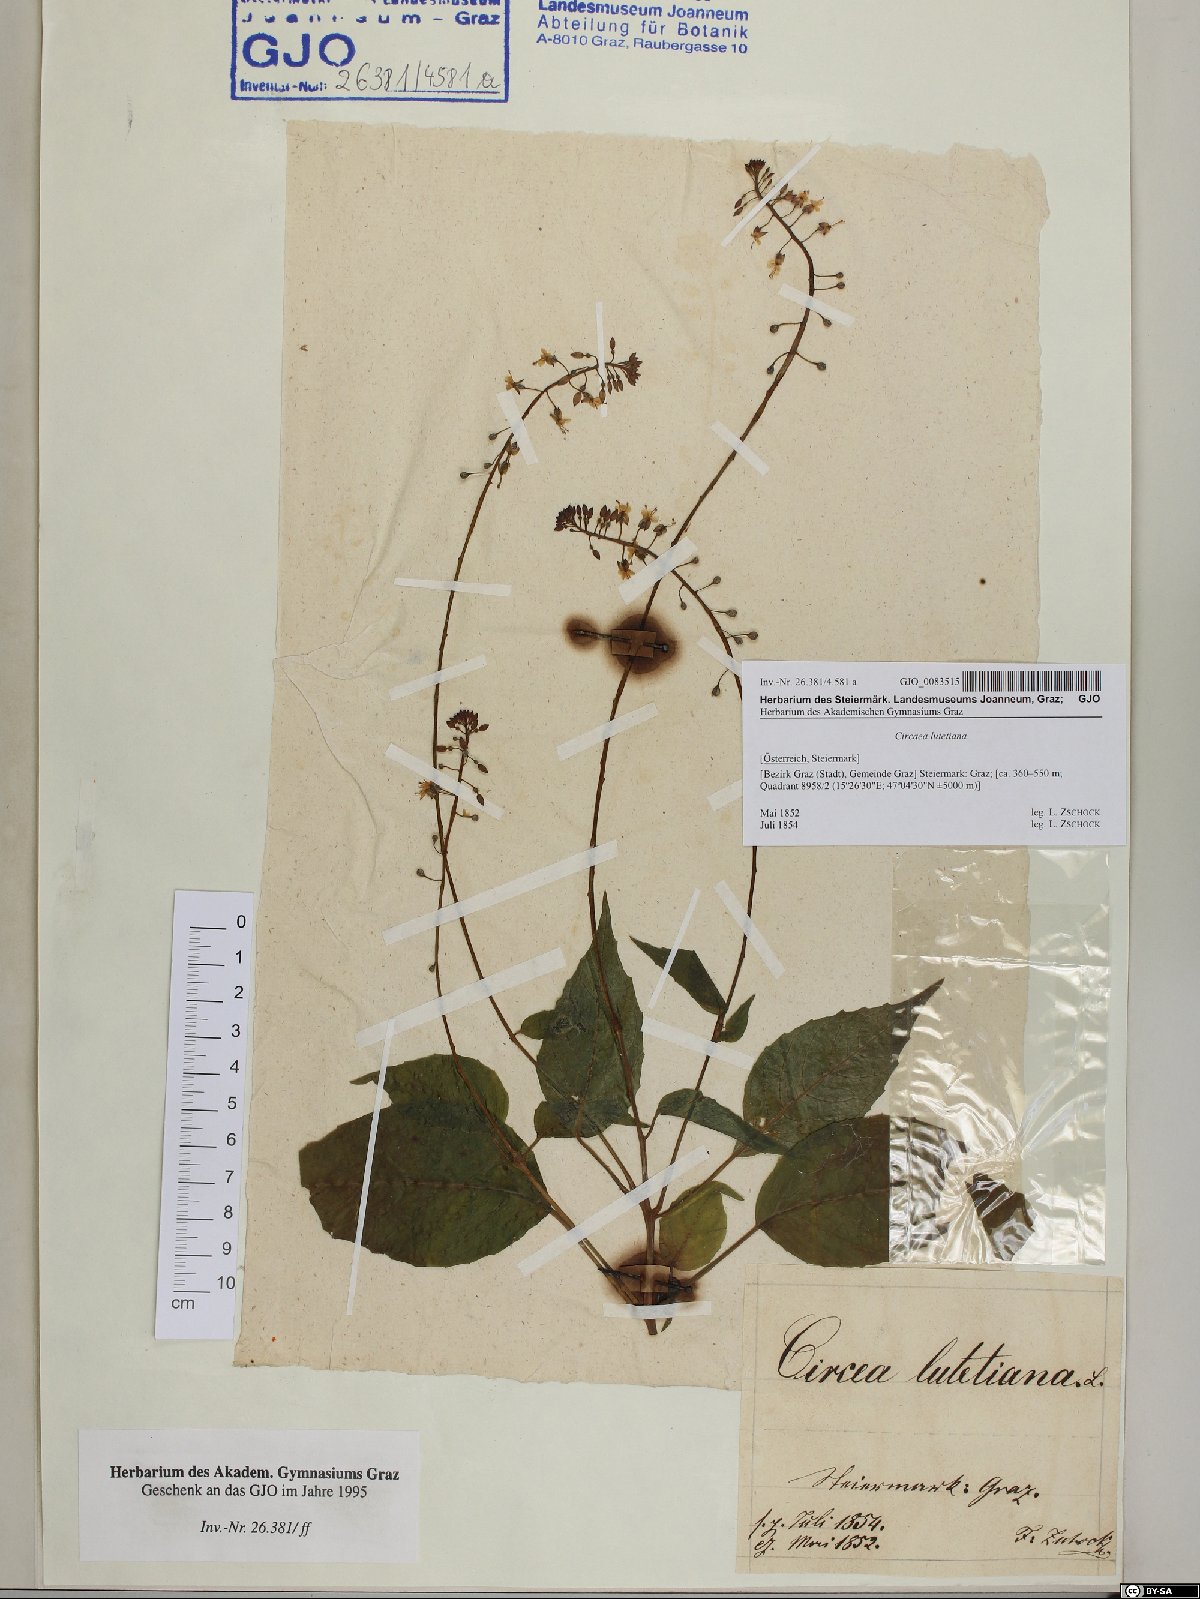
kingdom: Plantae
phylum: Tracheophyta
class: Magnoliopsida
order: Myrtales
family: Onagraceae
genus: Circaea
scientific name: Circaea lutetiana
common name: Enchanter's-nightshade
